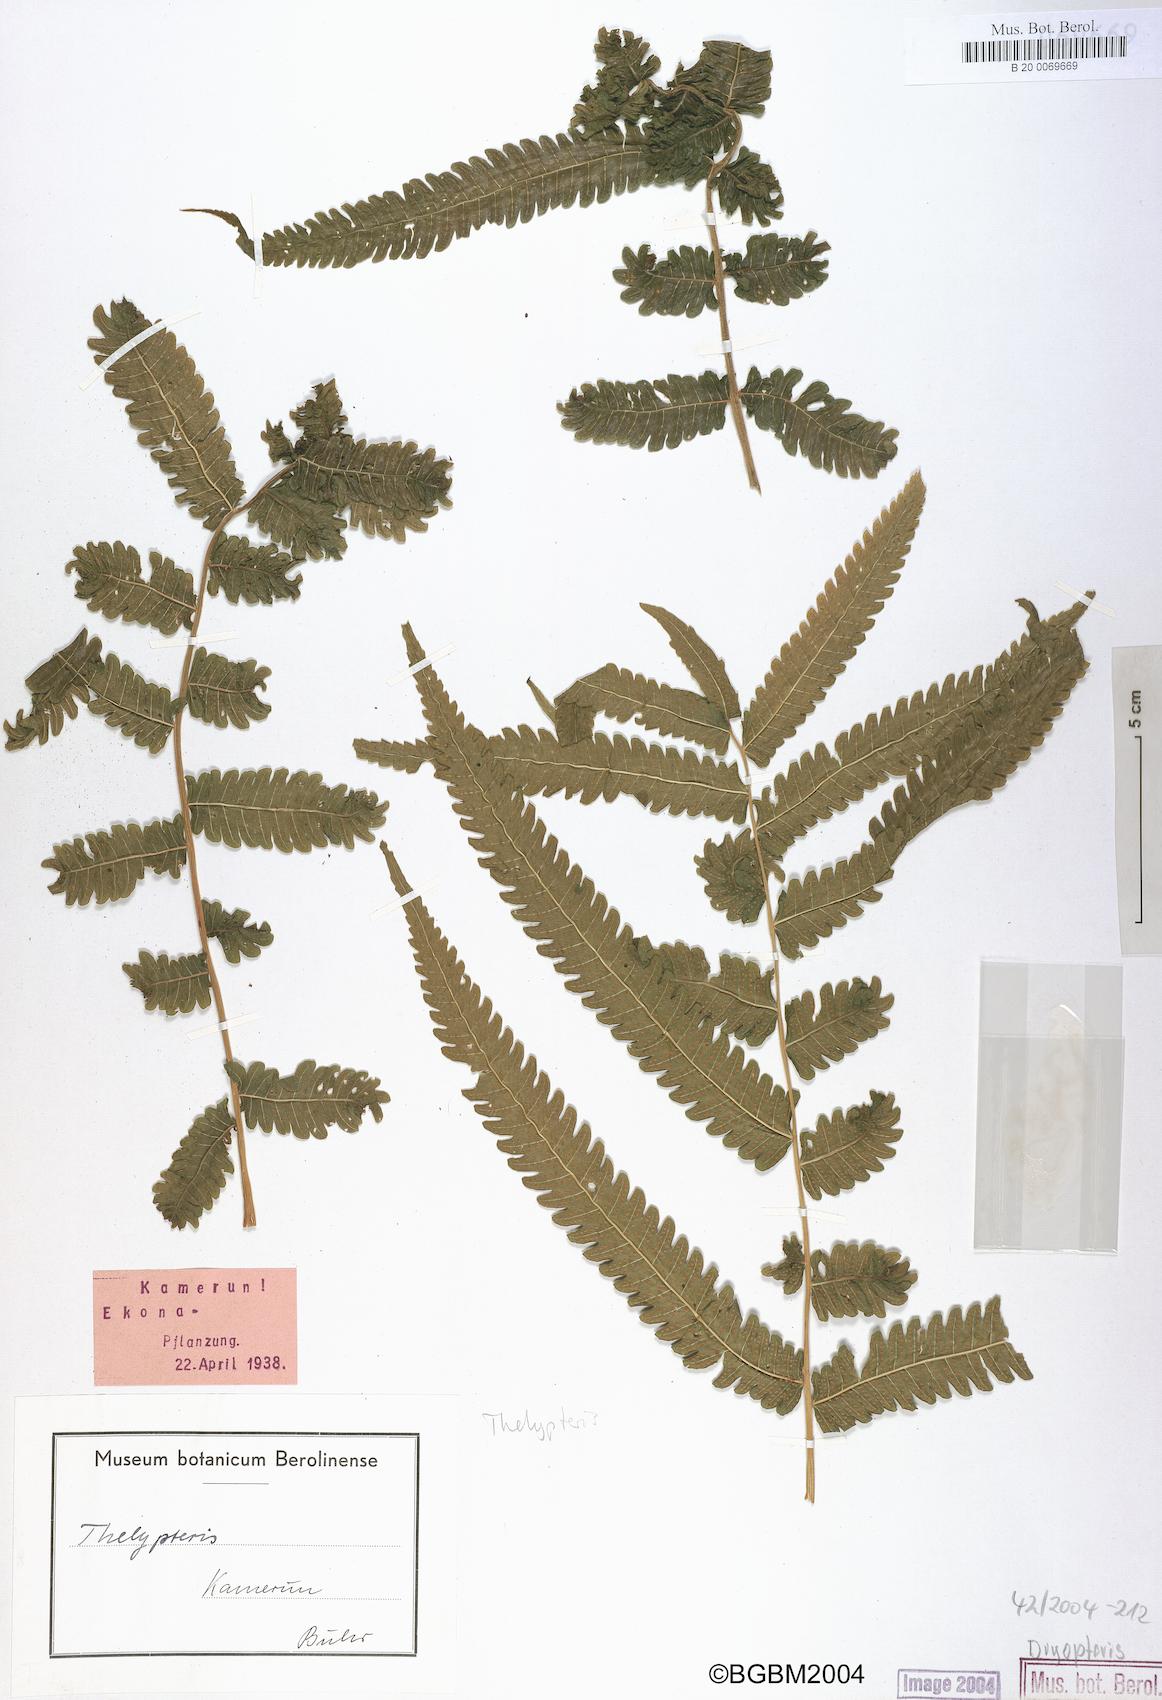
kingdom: Plantae
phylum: Tracheophyta
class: Polypodiopsida
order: Polypodiales
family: Thelypteridaceae
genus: Thelypteris
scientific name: Thelypteris
